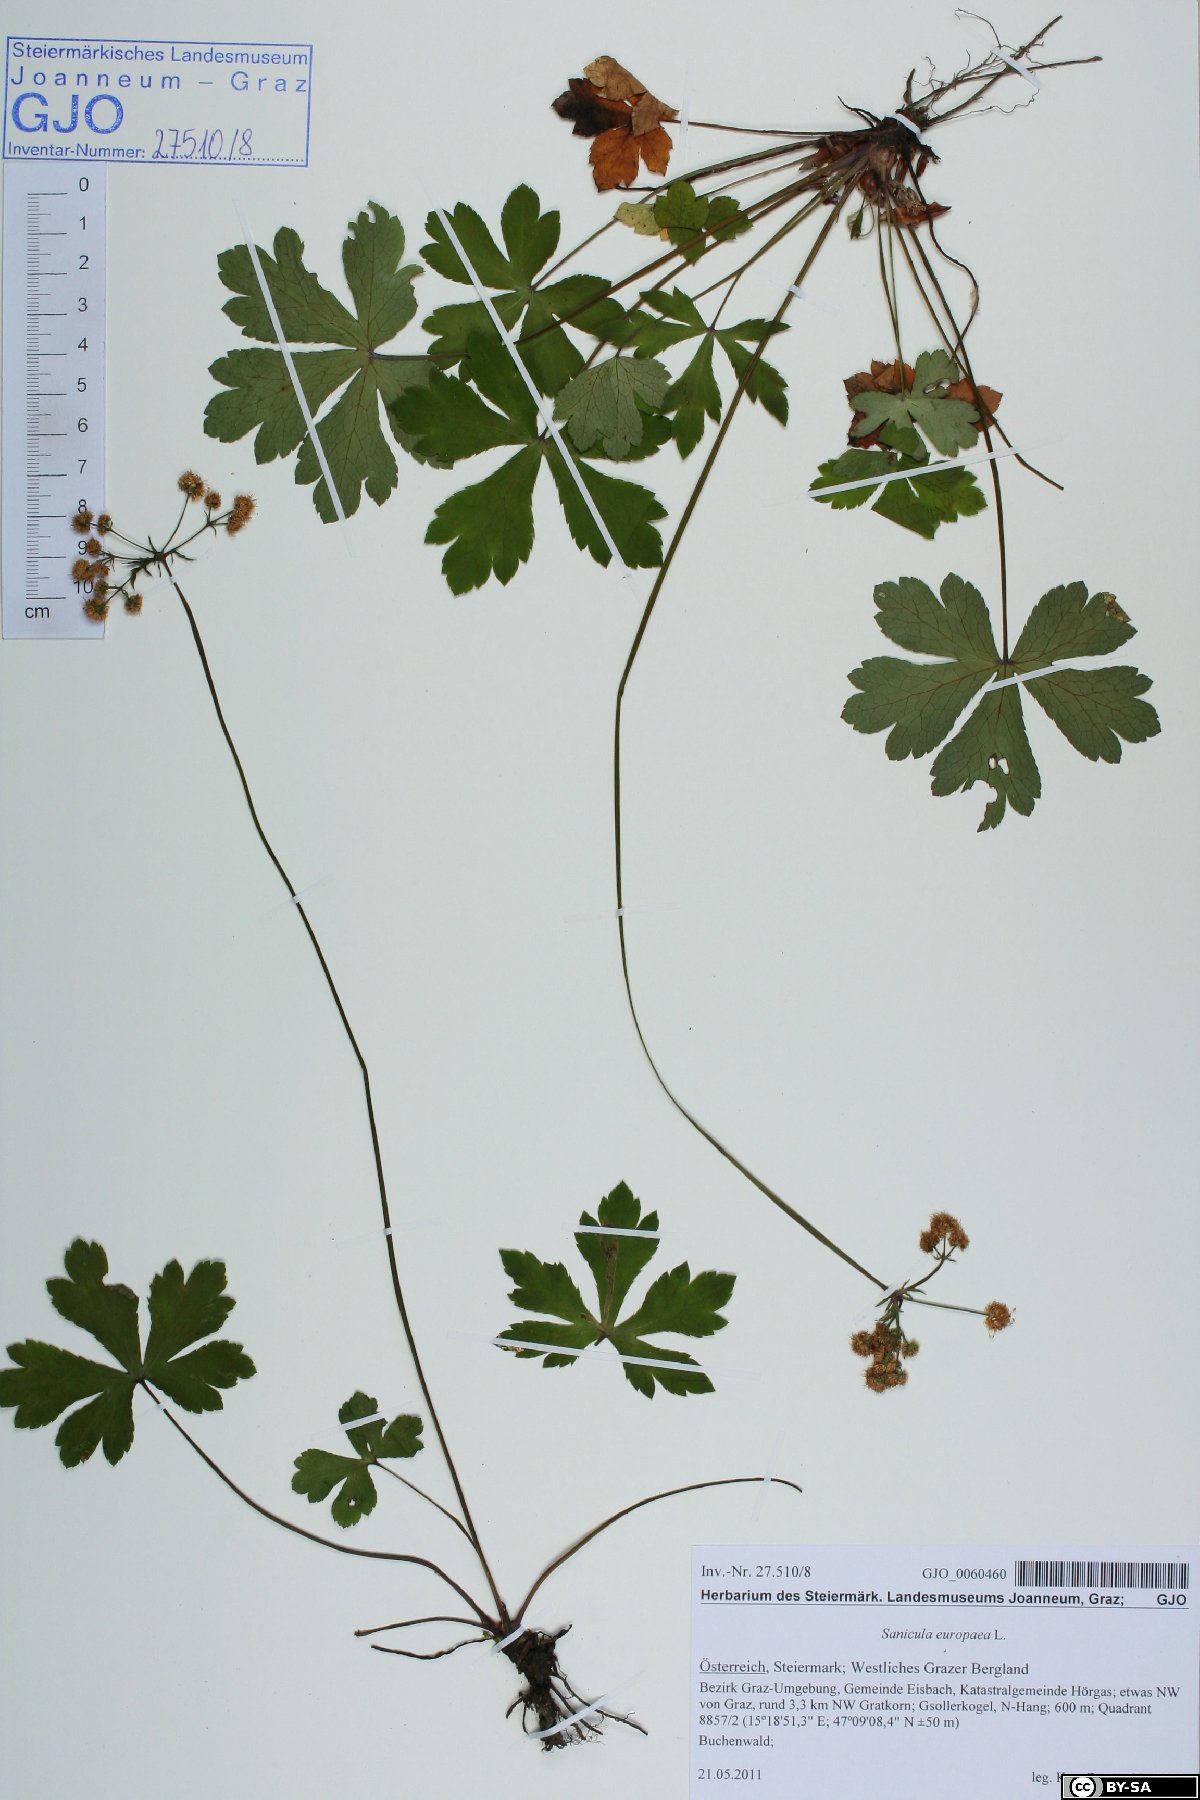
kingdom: Plantae
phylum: Tracheophyta
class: Magnoliopsida
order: Apiales
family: Apiaceae
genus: Sanicula
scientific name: Sanicula europaea
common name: Sanicle
